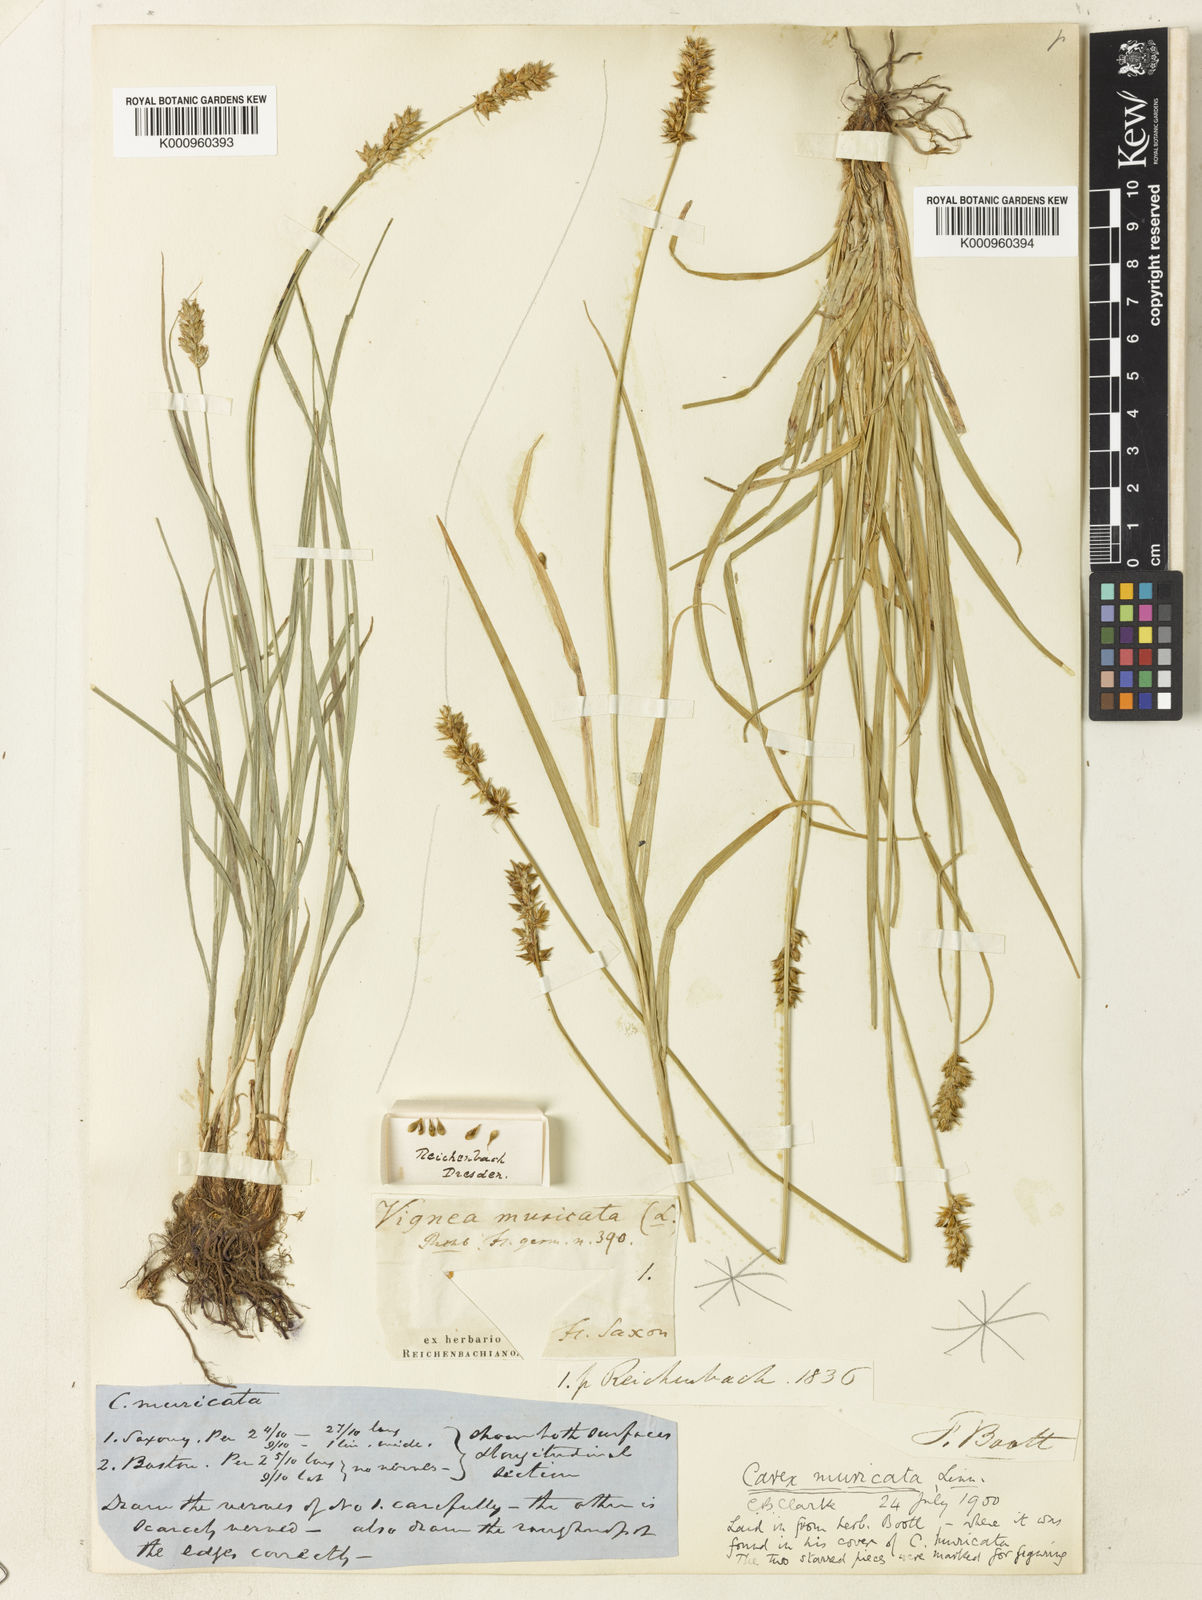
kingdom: Plantae
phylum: Tracheophyta
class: Liliopsida
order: Poales
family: Cyperaceae
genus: Carex
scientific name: Carex spicata
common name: Spiked sedge
